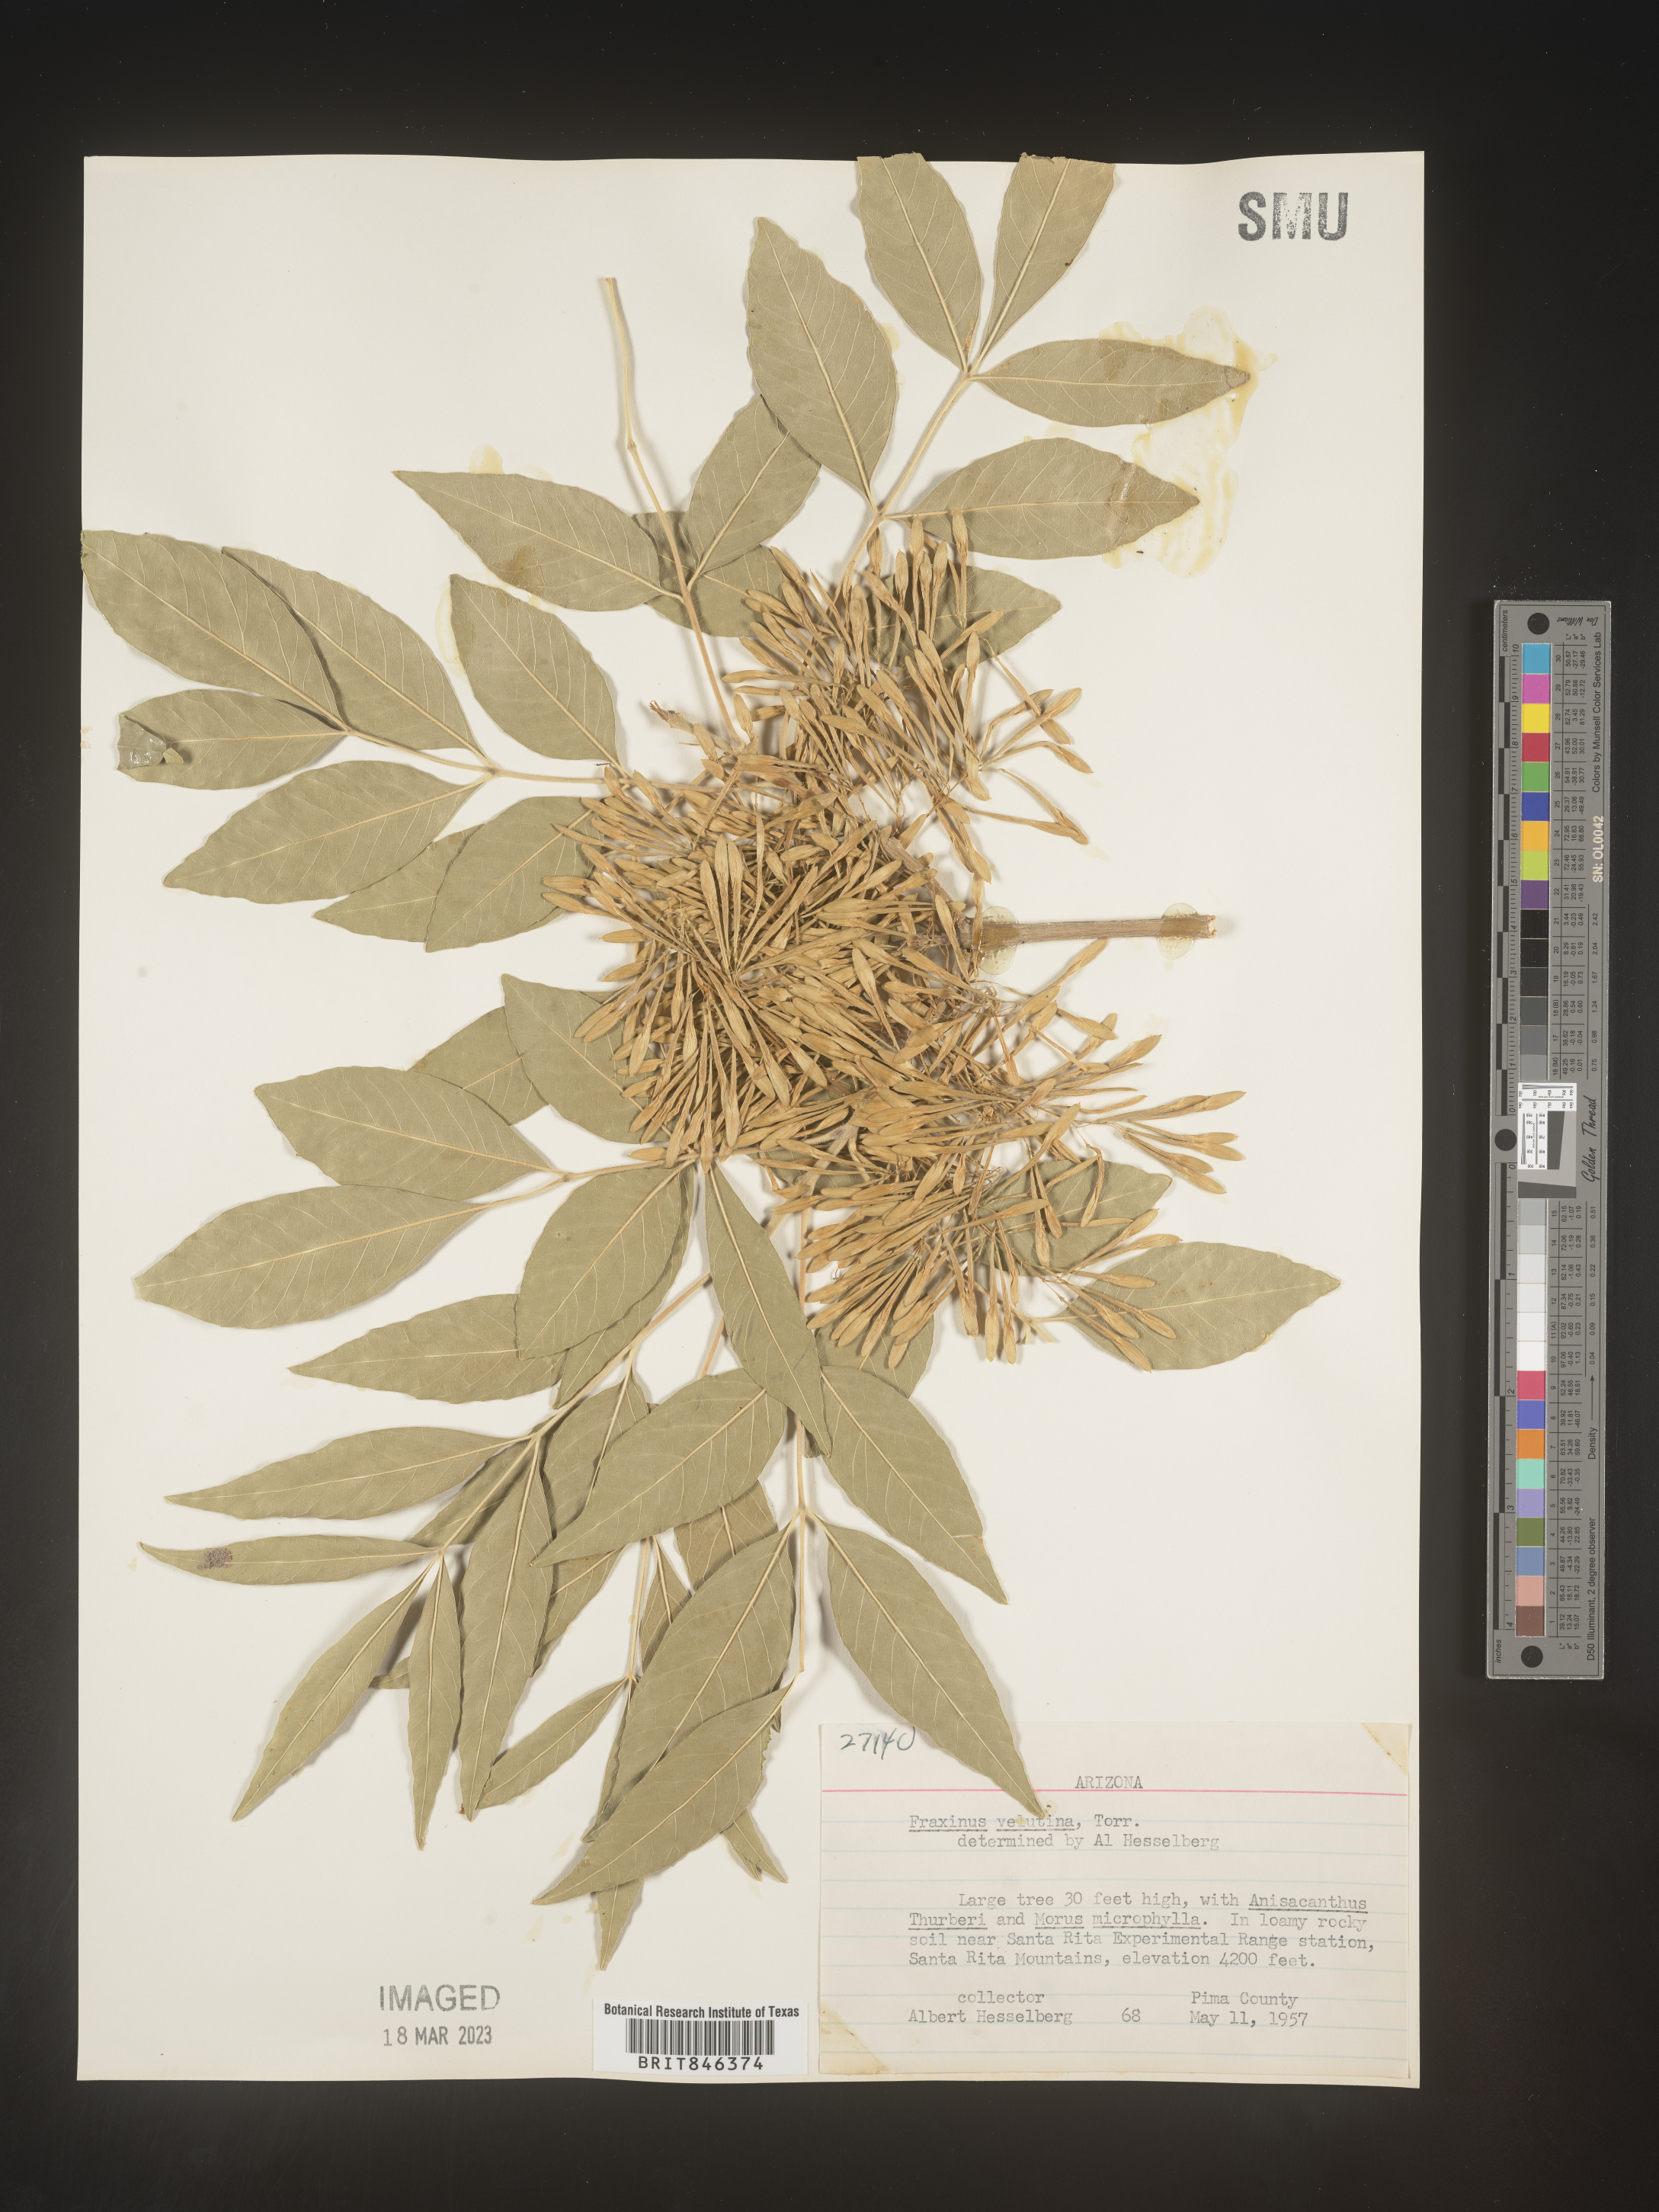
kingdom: Plantae
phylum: Tracheophyta
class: Magnoliopsida
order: Lamiales
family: Oleaceae
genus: Fraxinus
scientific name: Fraxinus velutina
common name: Arizon ash
